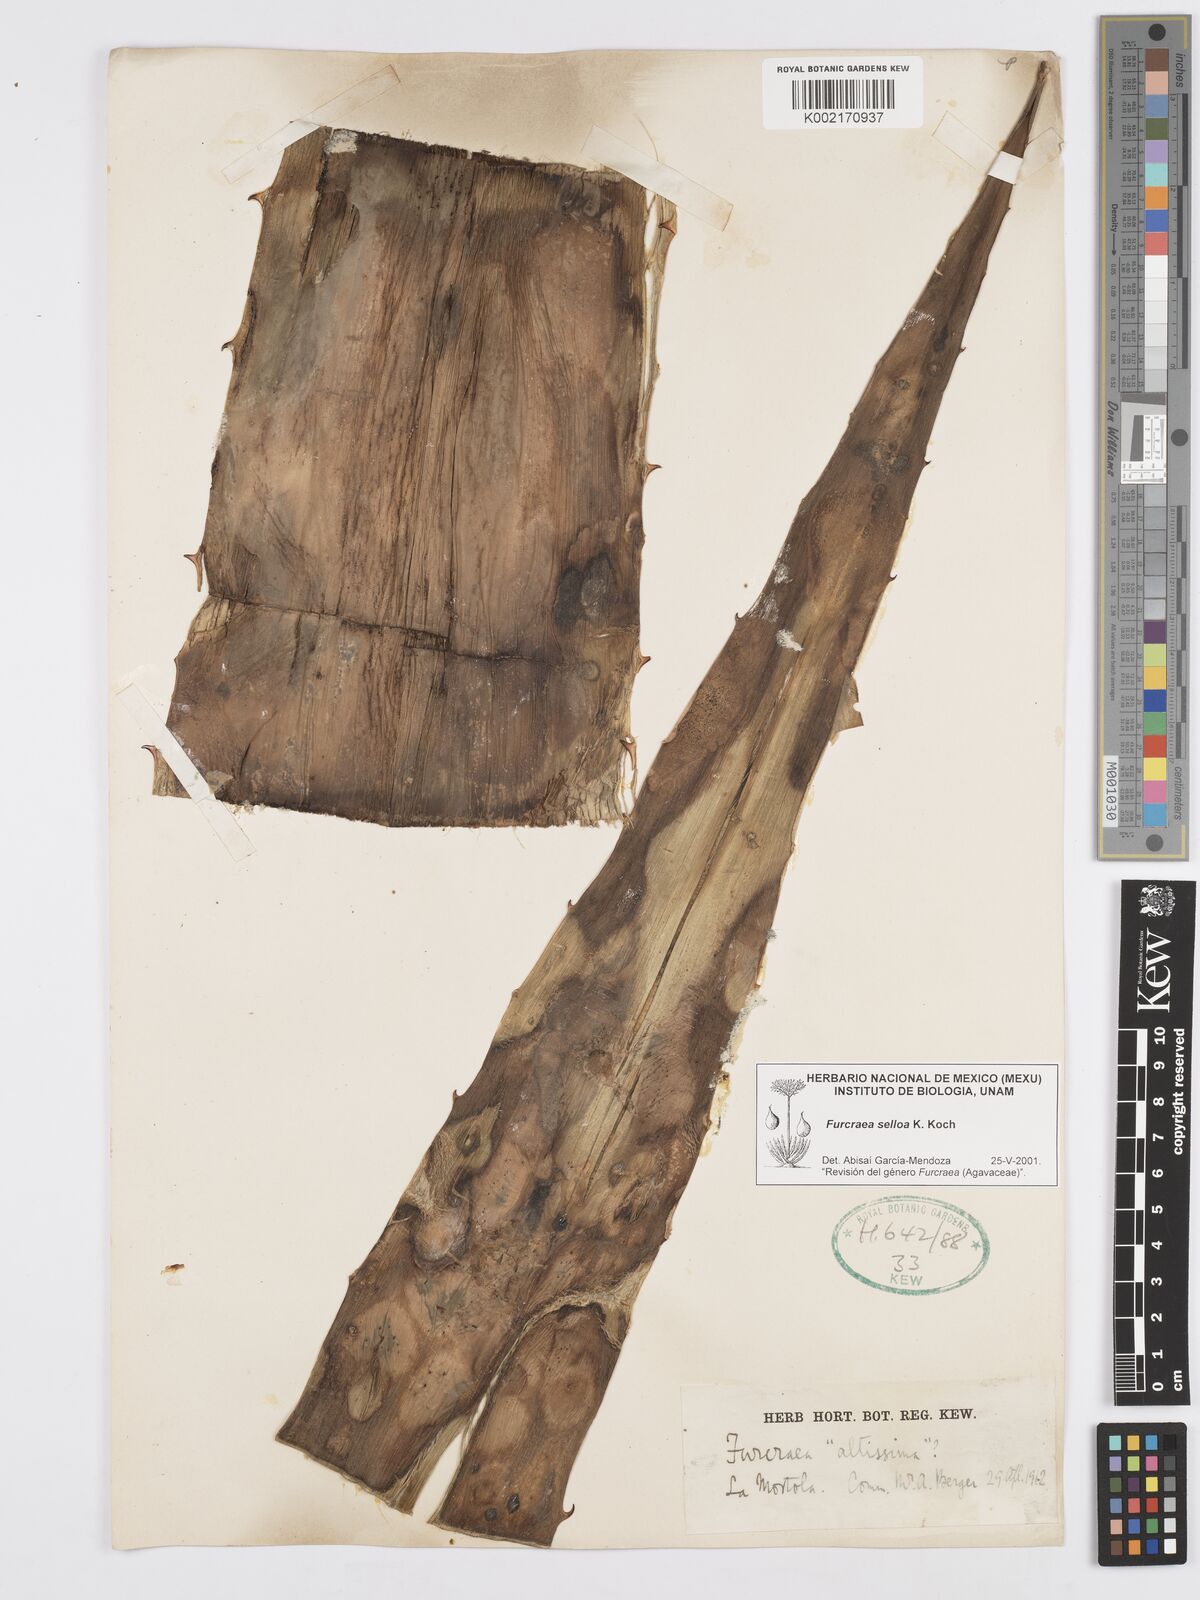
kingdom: Plantae
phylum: Tracheophyta
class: Liliopsida
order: Asparagales
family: Asparagaceae
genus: Furcraea
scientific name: Furcraea selloana
